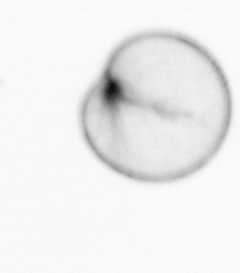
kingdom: Chromista
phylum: Myzozoa
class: Dinophyceae
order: Noctilucales
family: Noctilucaceae
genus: Noctiluca
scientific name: Noctiluca scintillans
